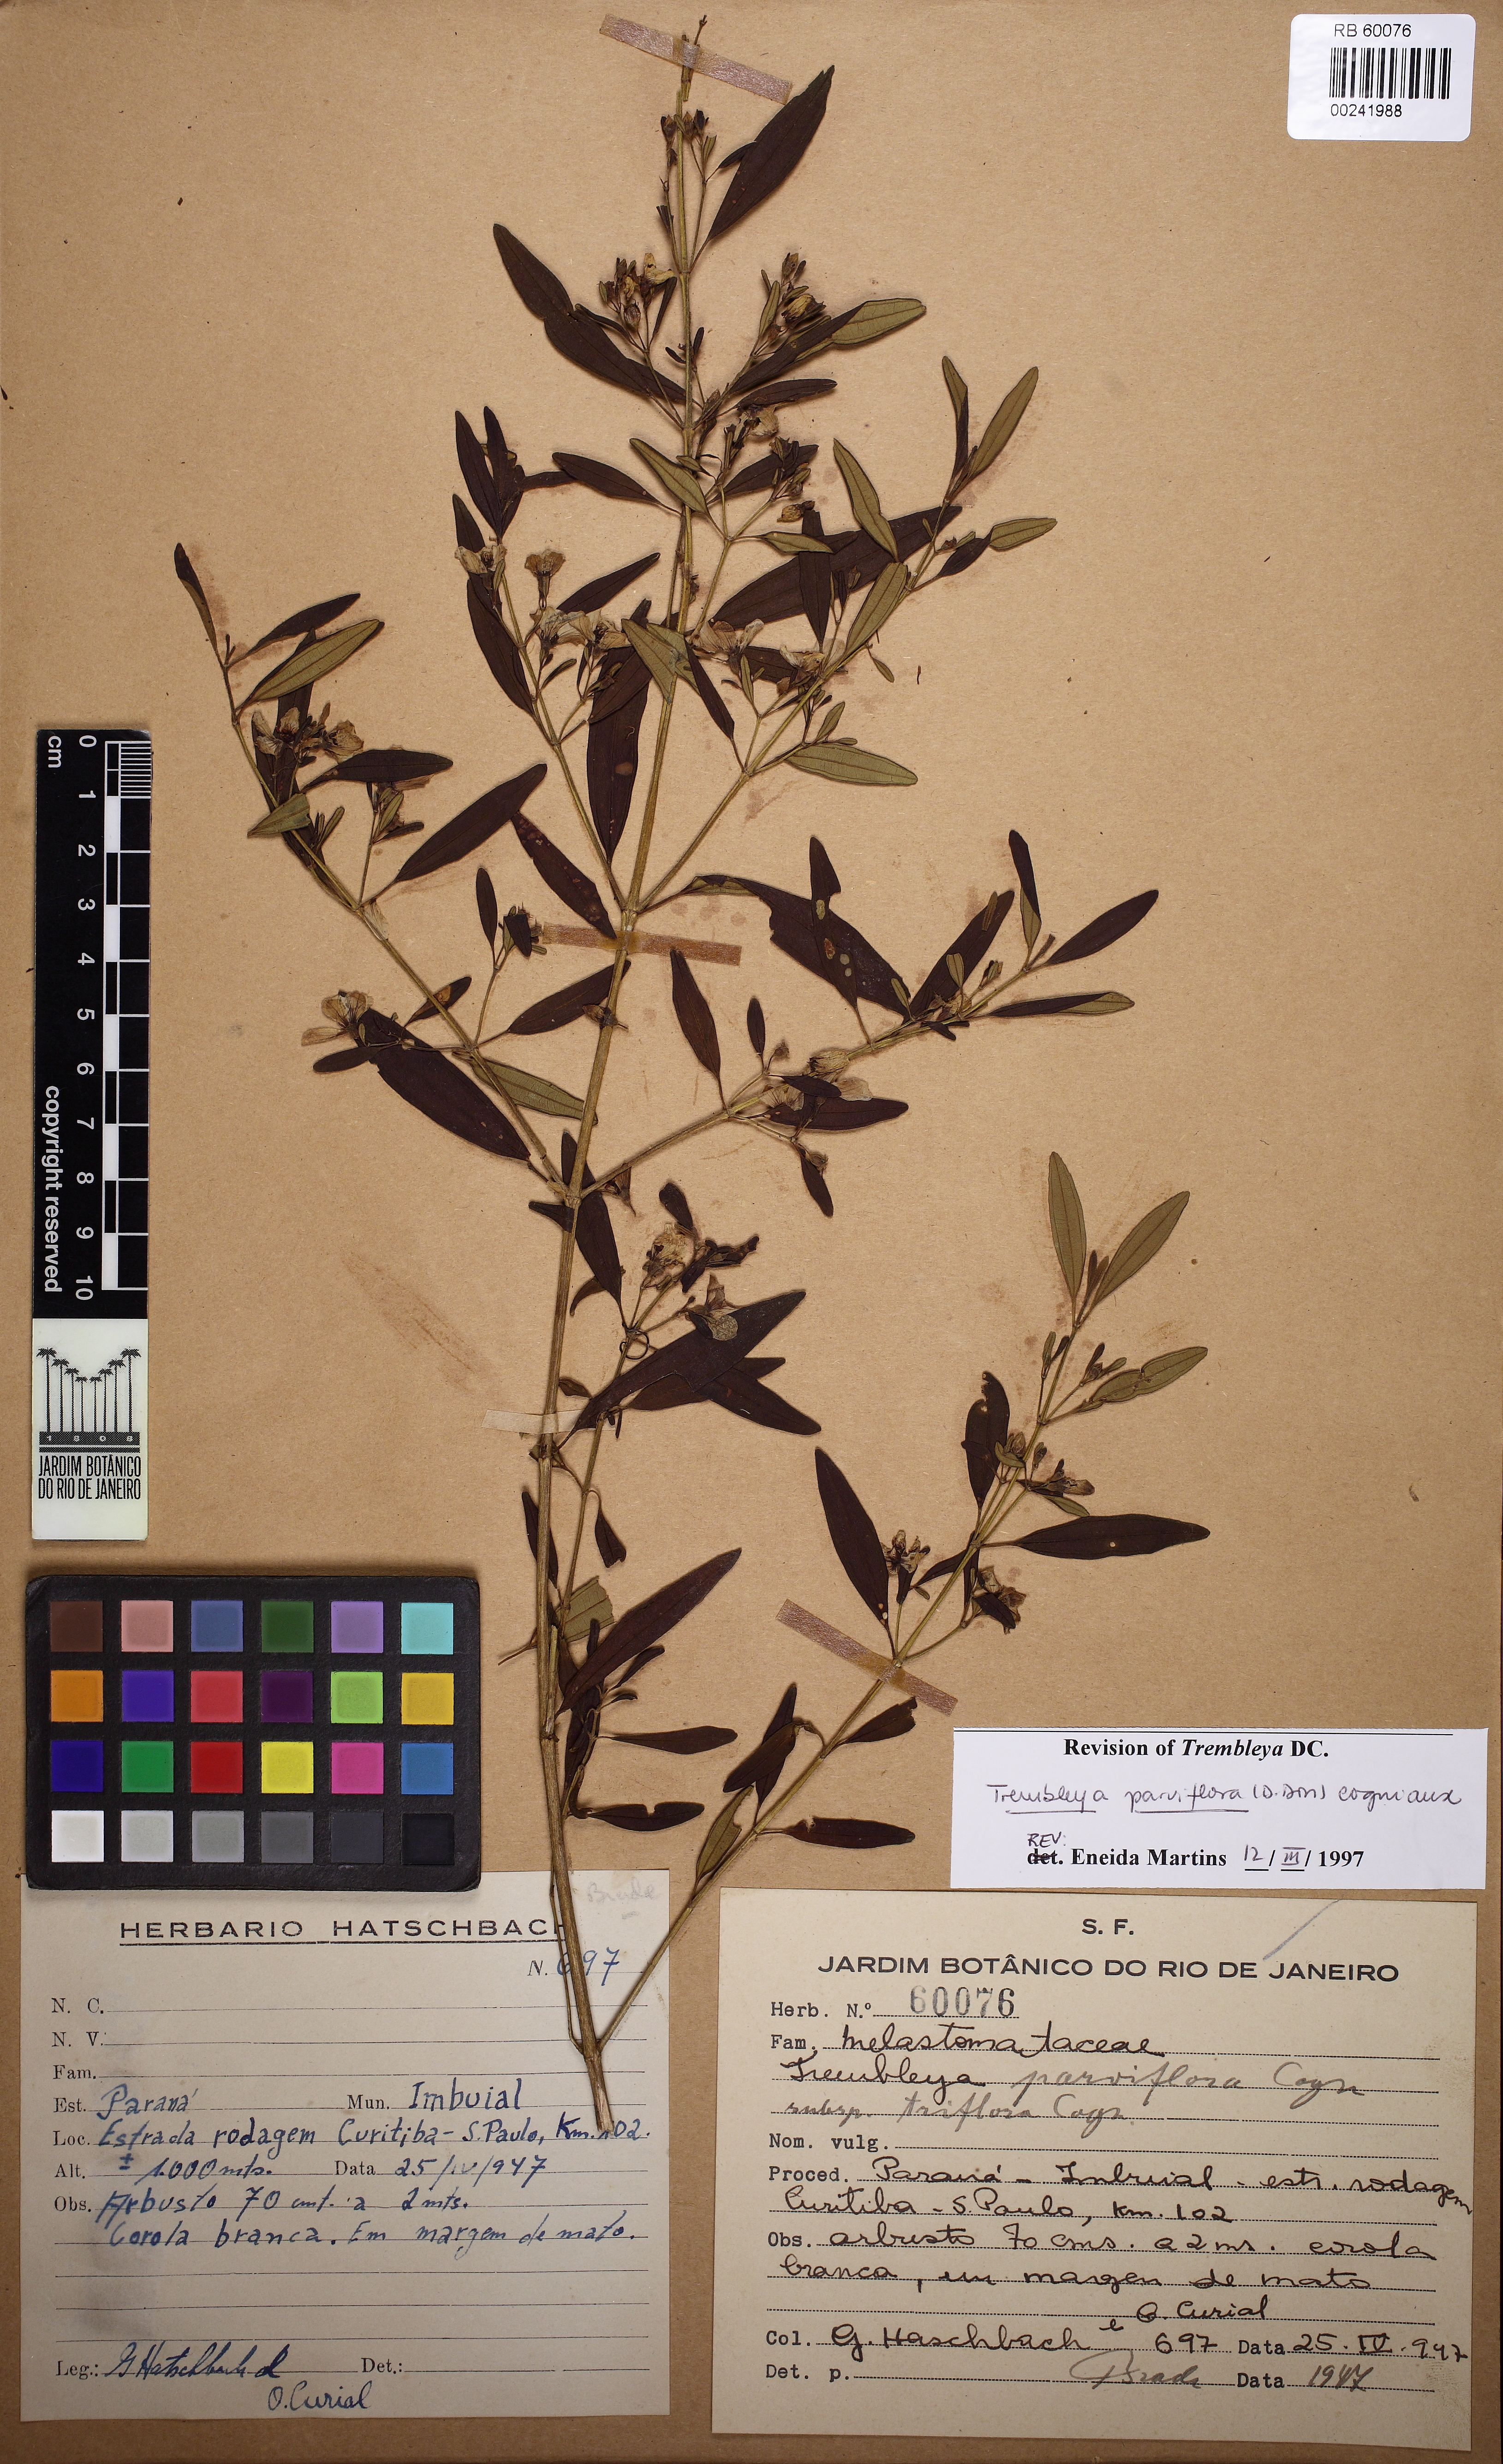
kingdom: Plantae
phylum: Tracheophyta
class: Magnoliopsida
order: Myrtales
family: Melastomataceae
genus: Microlicia
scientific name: Microlicia parviflora
